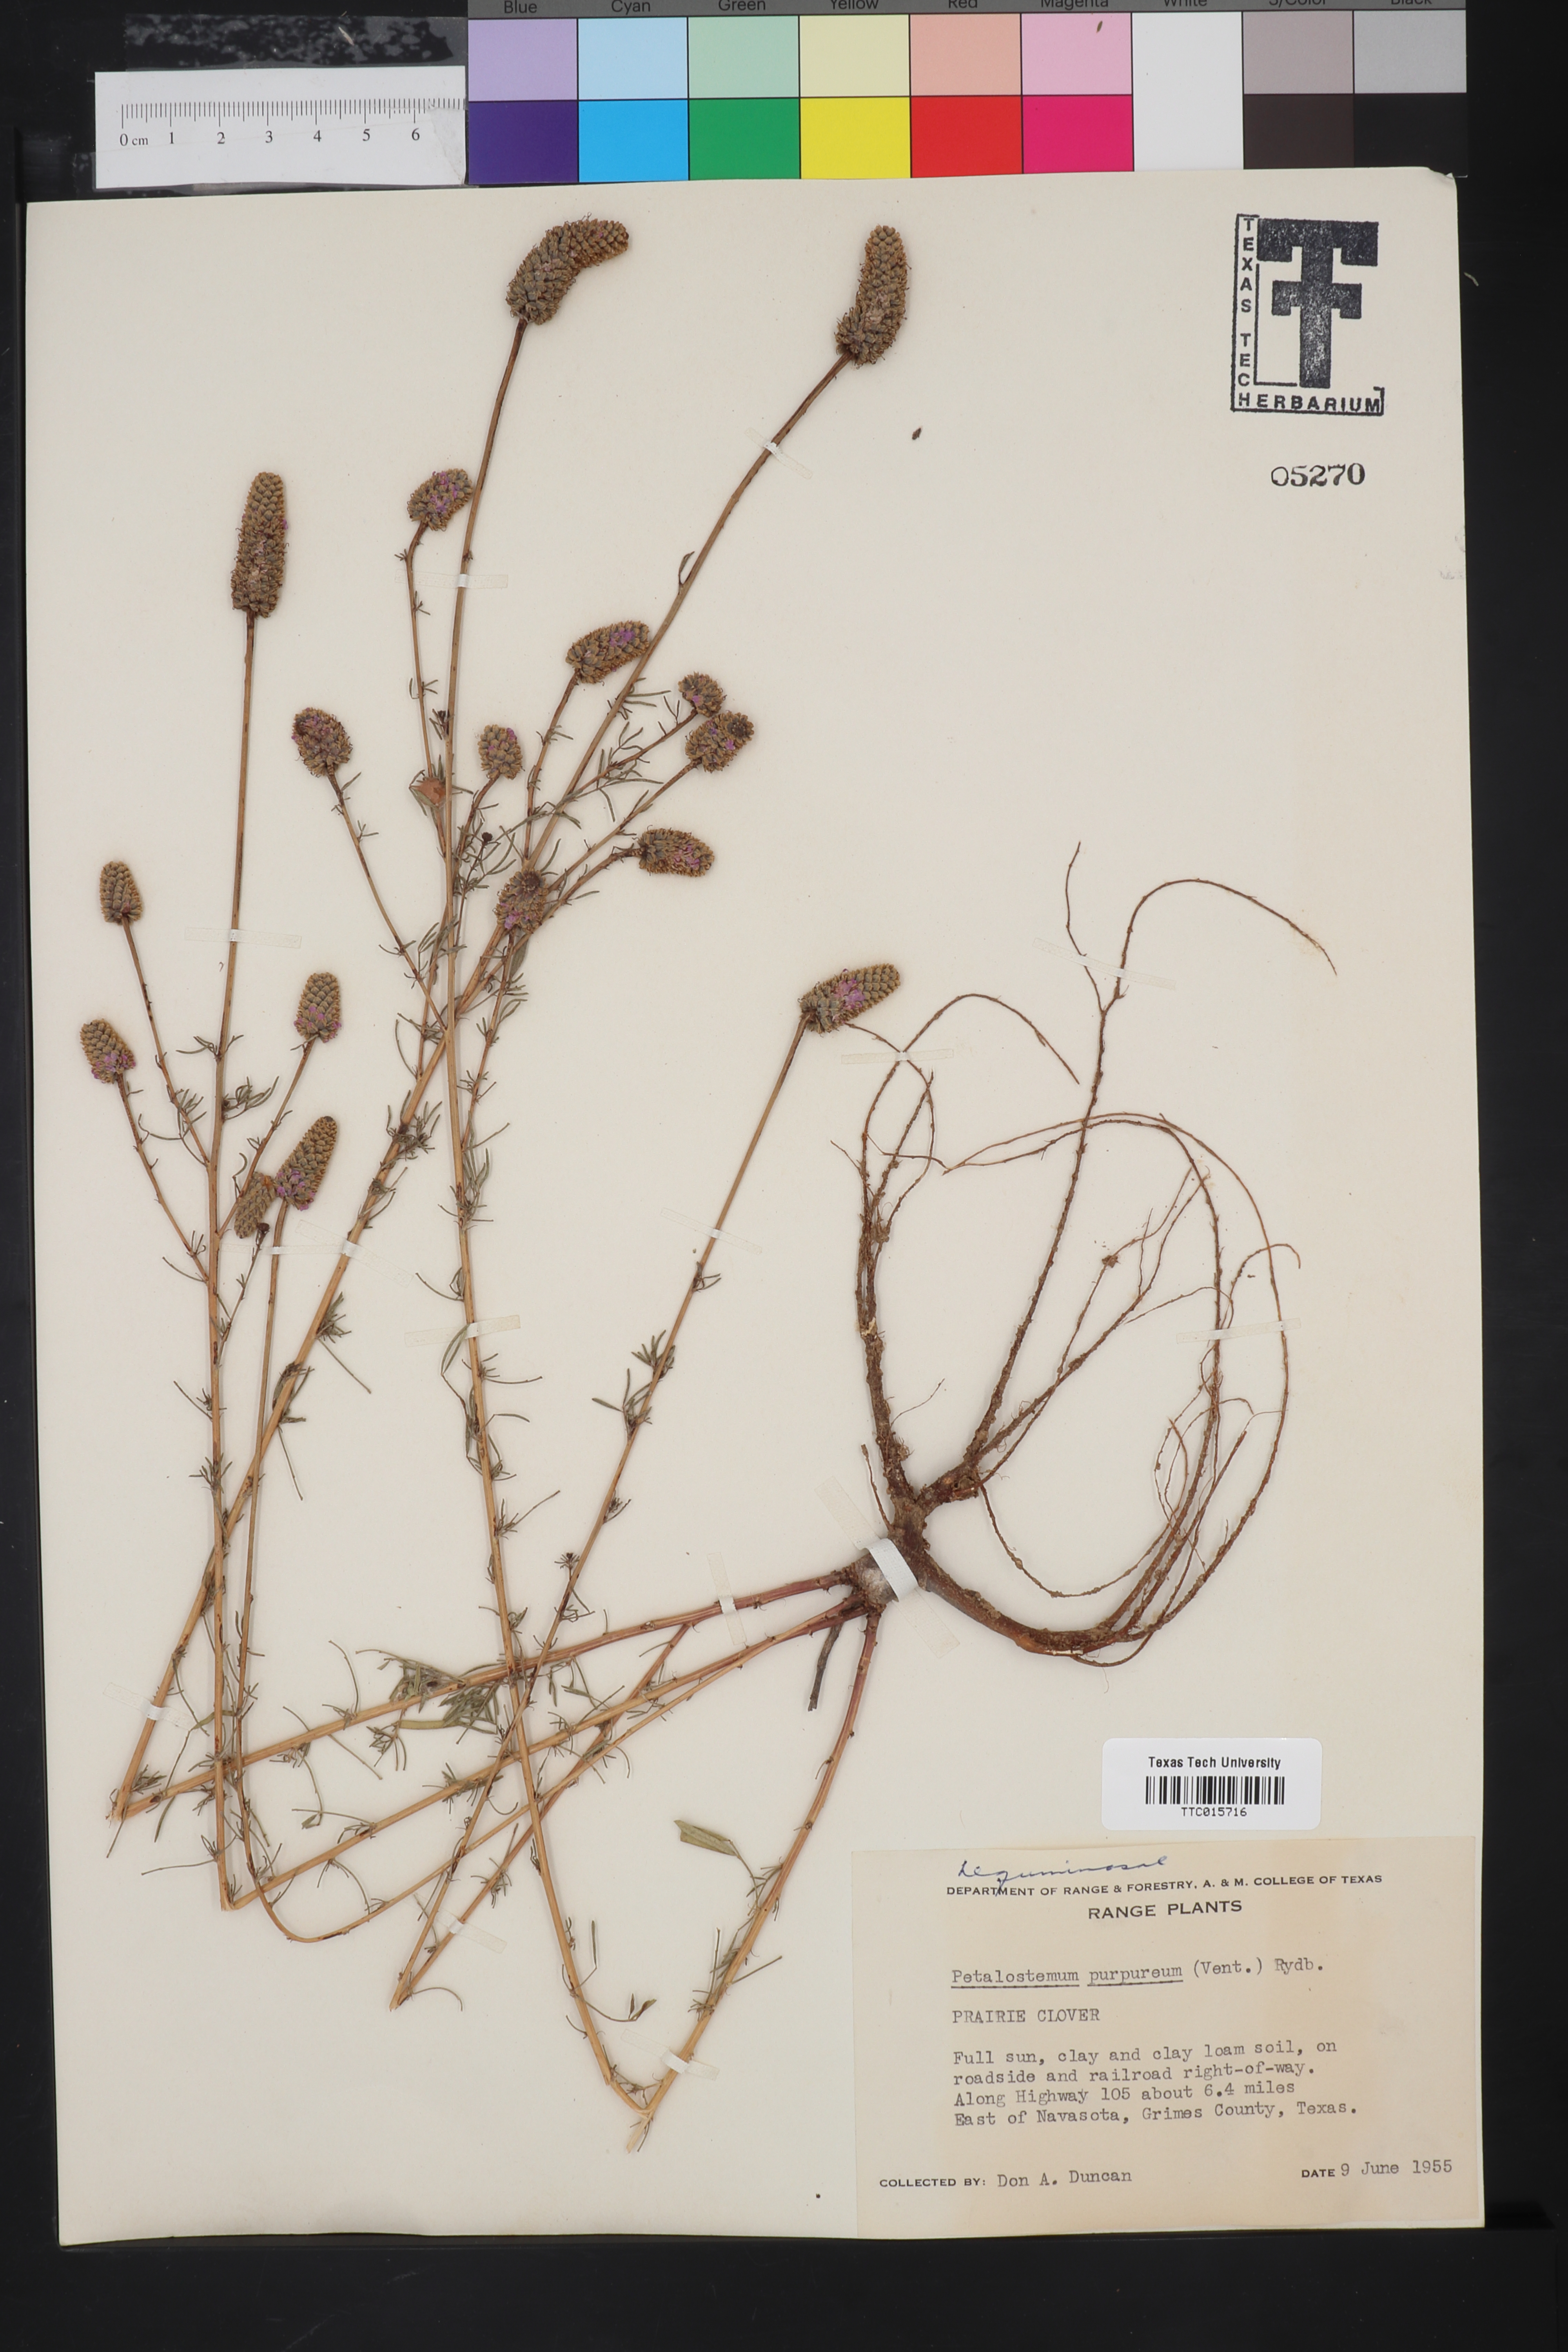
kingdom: Plantae
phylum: Tracheophyta
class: Magnoliopsida
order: Fabales
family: Fabaceae
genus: Petalostemum
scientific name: Petalostemum
